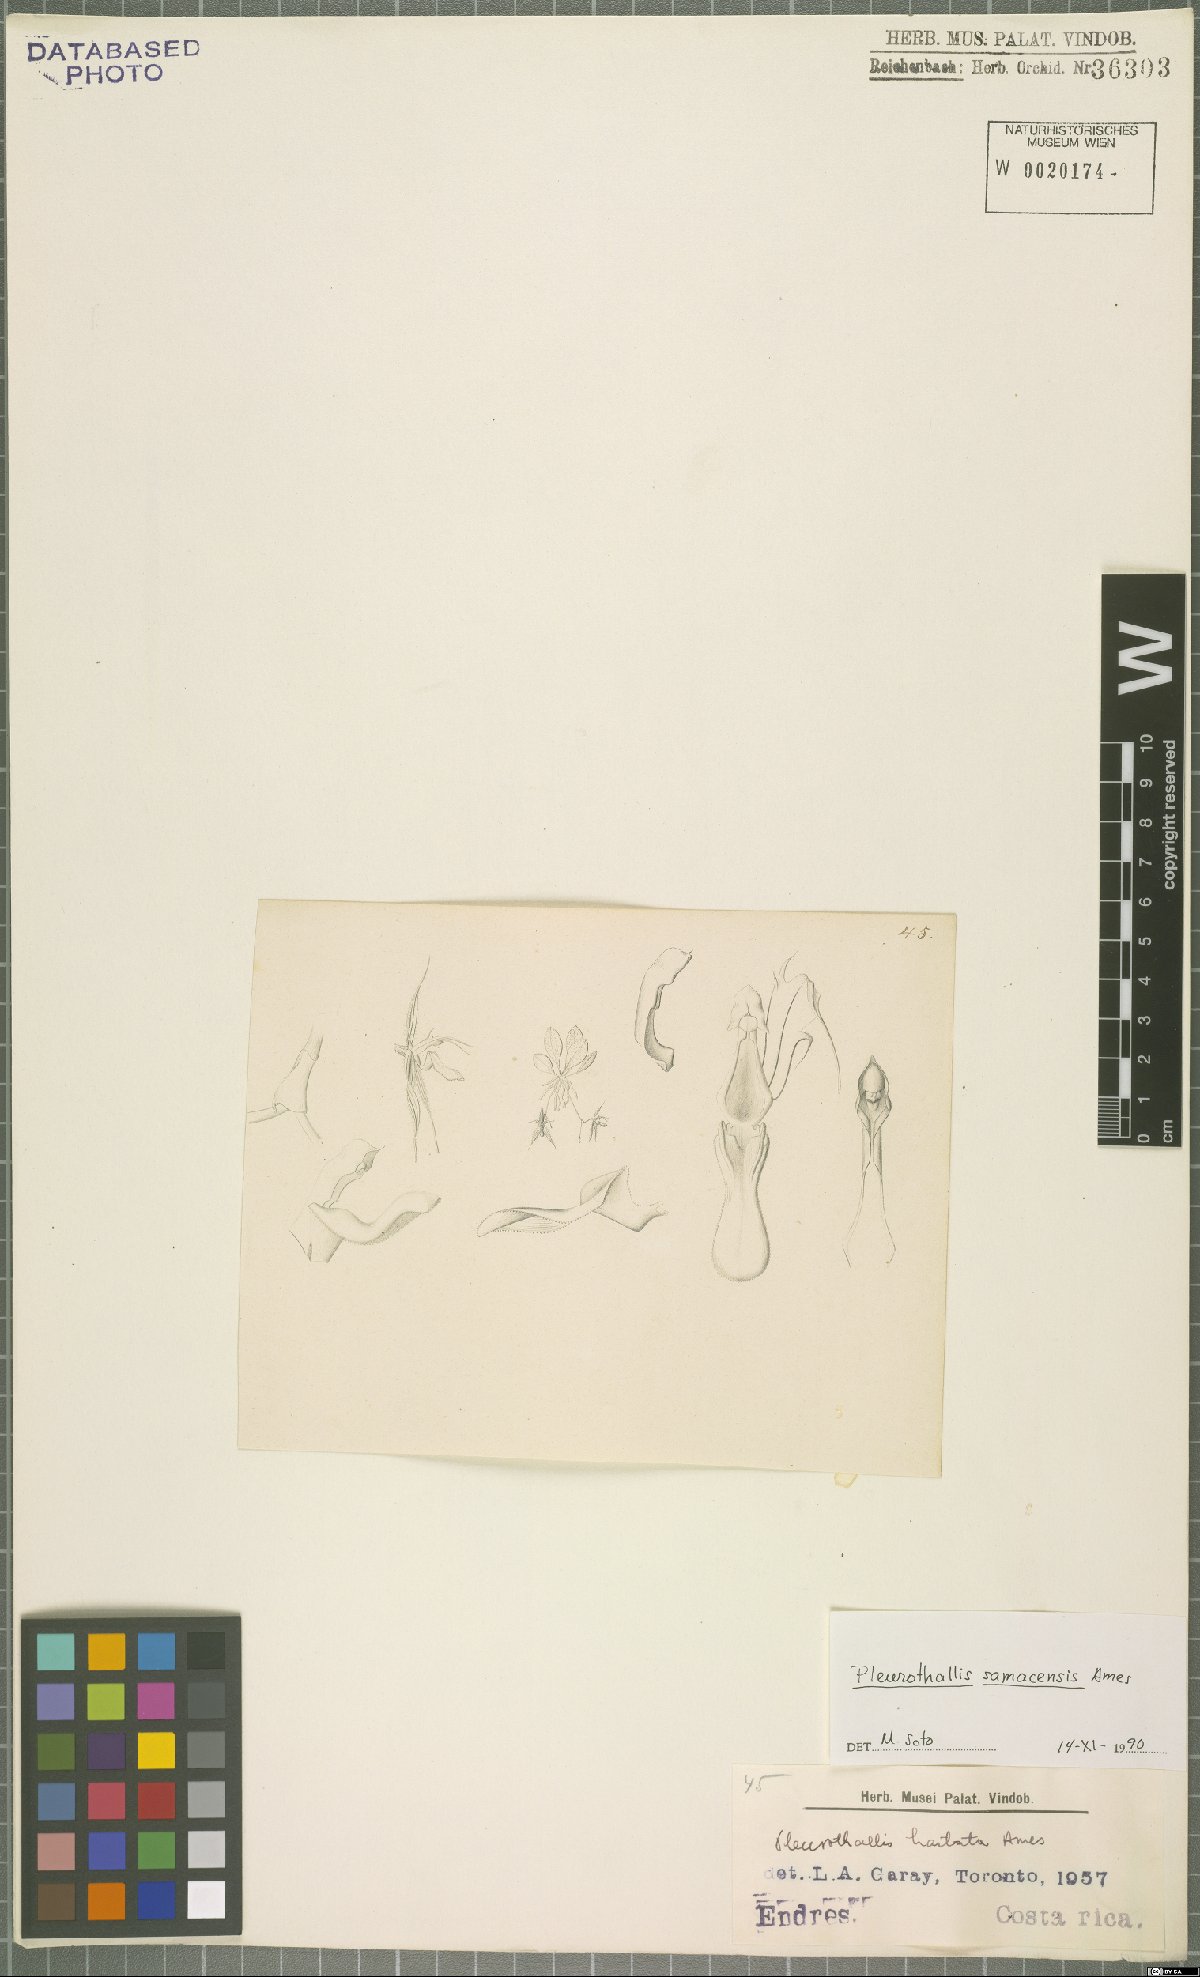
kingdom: Plantae
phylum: Tracheophyta
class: Liliopsida
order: Asparagales
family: Orchidaceae
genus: Muscarella
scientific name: Muscarella samacensis
